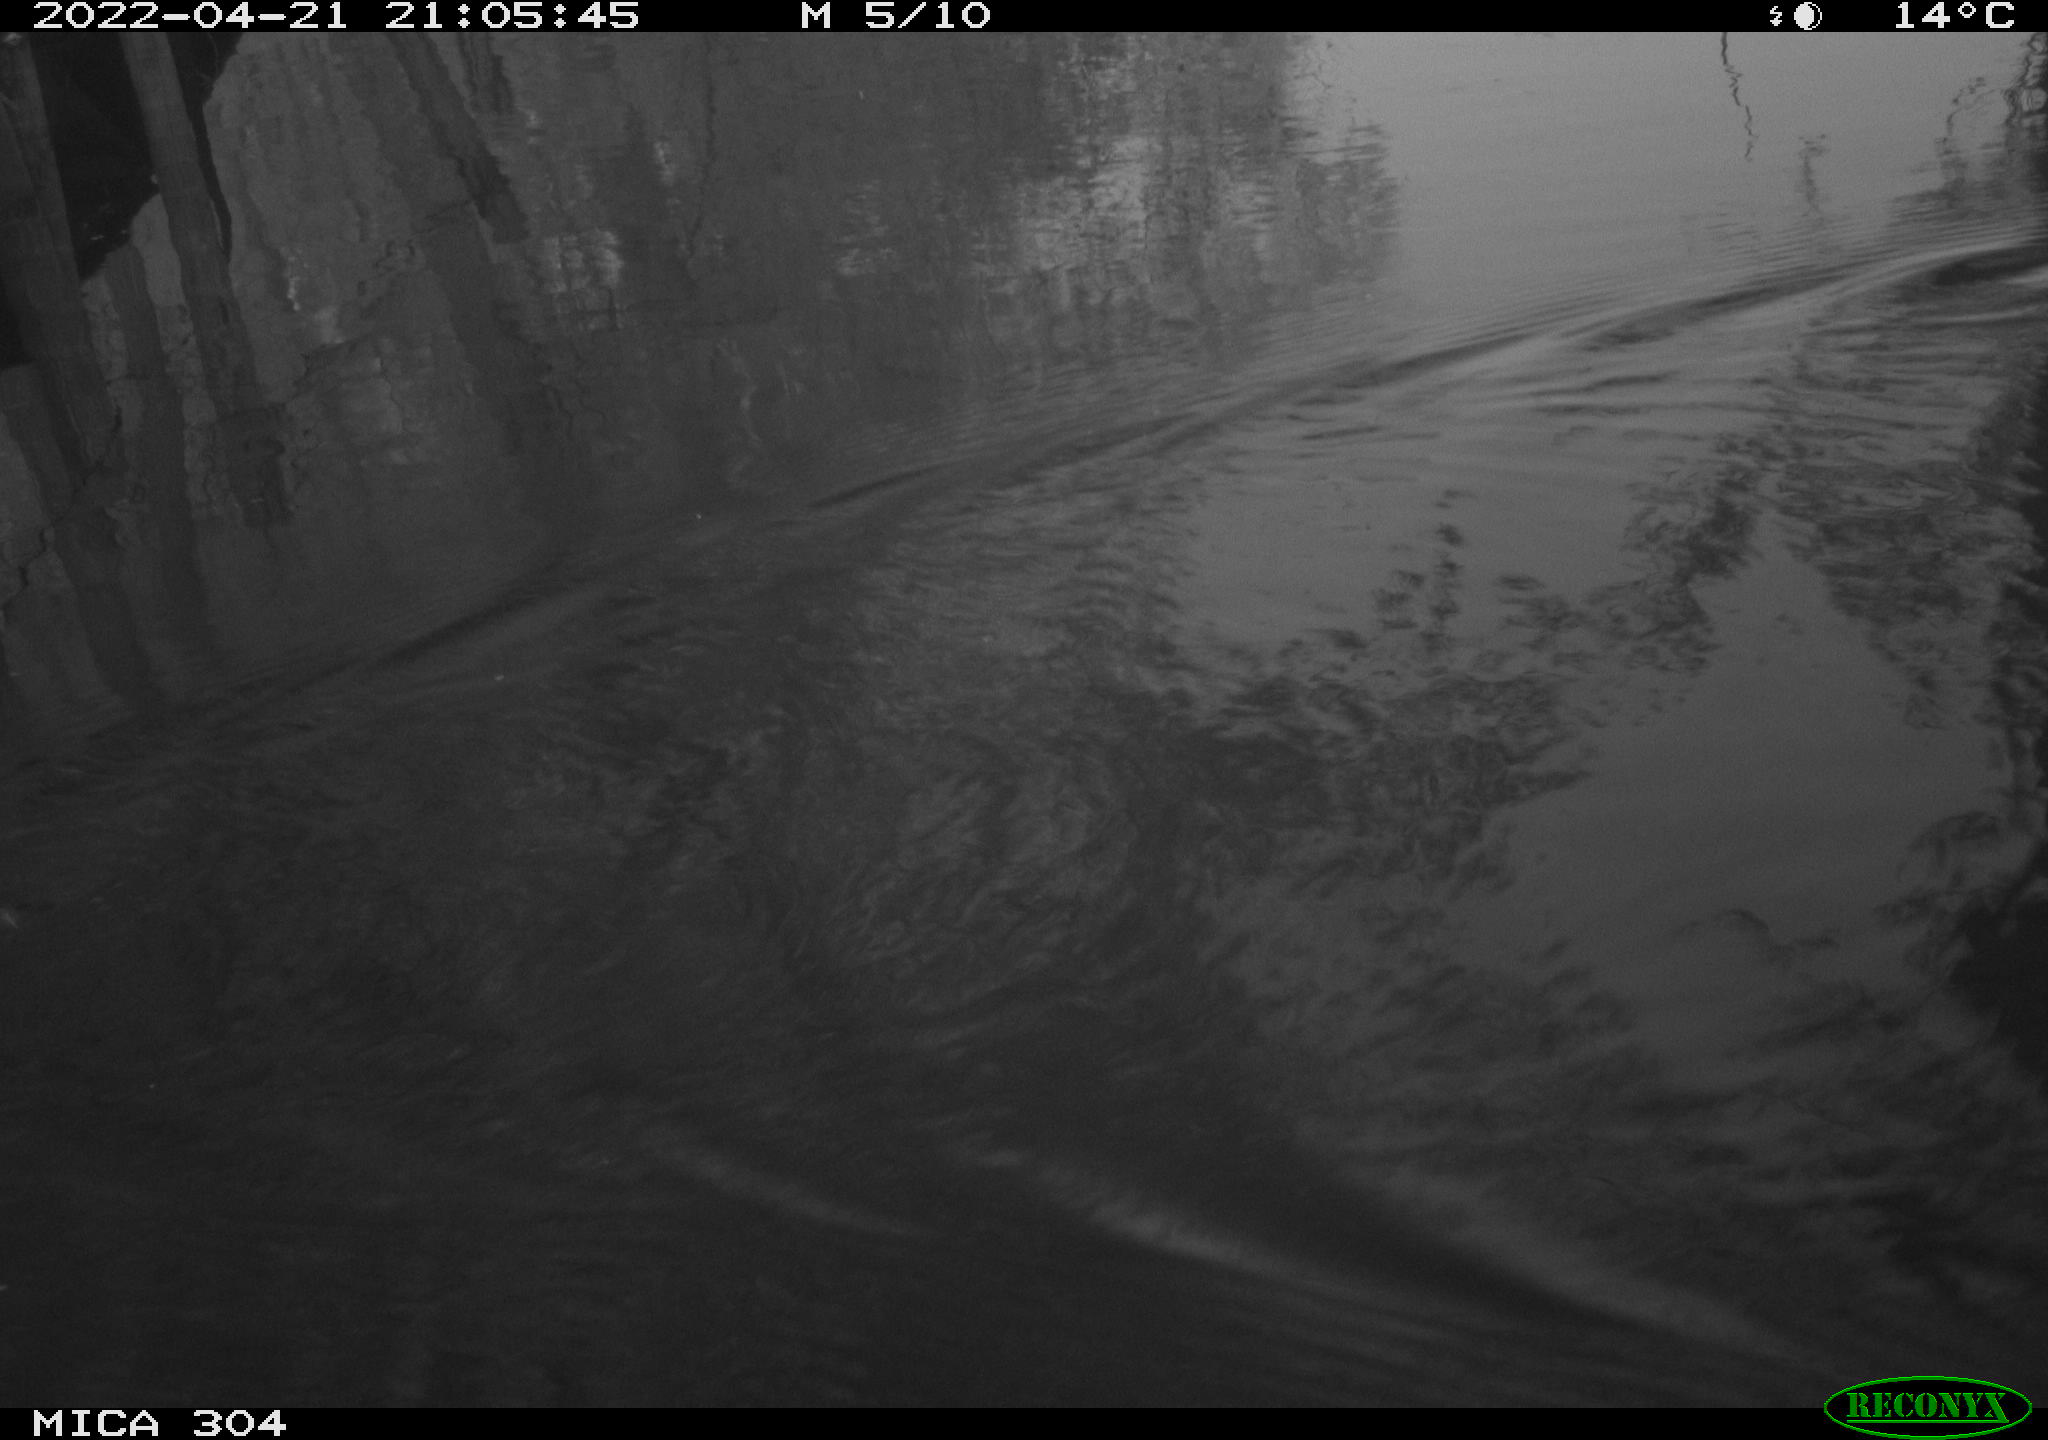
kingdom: Animalia
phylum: Chordata
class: Mammalia
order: Rodentia
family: Muridae
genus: Rattus
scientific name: Rattus norvegicus
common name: Brown rat
